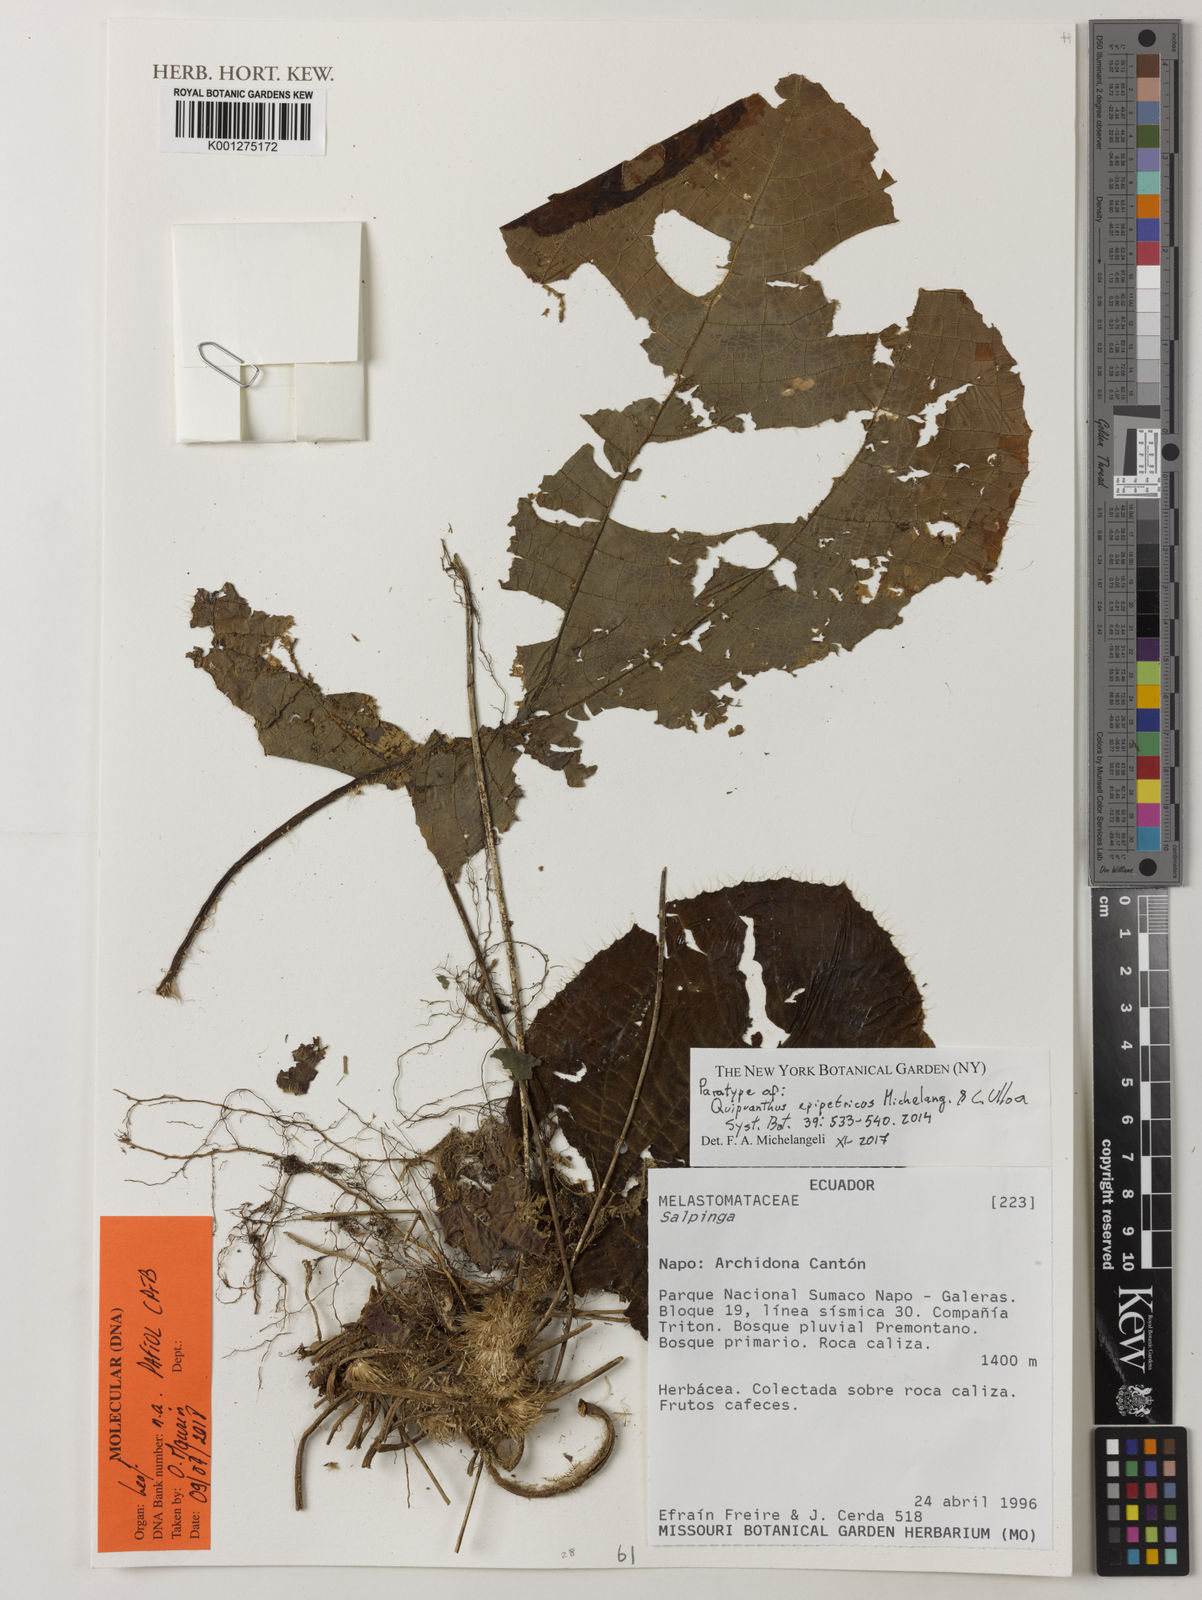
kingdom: Plantae
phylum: Tracheophyta
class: Magnoliopsida
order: Myrtales
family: Melastomataceae
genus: Quipuanthus
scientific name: Quipuanthus epipetricus
